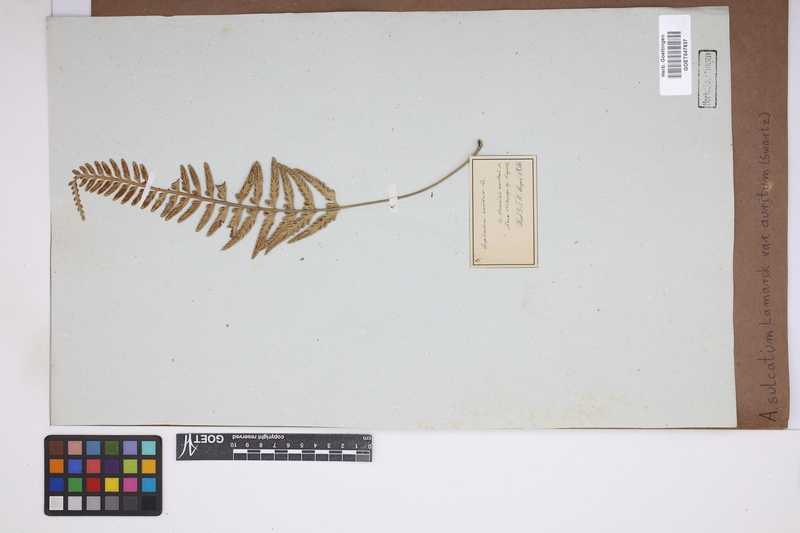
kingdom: Plantae
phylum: Tracheophyta
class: Polypodiopsida
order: Polypodiales
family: Aspleniaceae
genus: Asplenium
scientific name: Asplenium auritum
